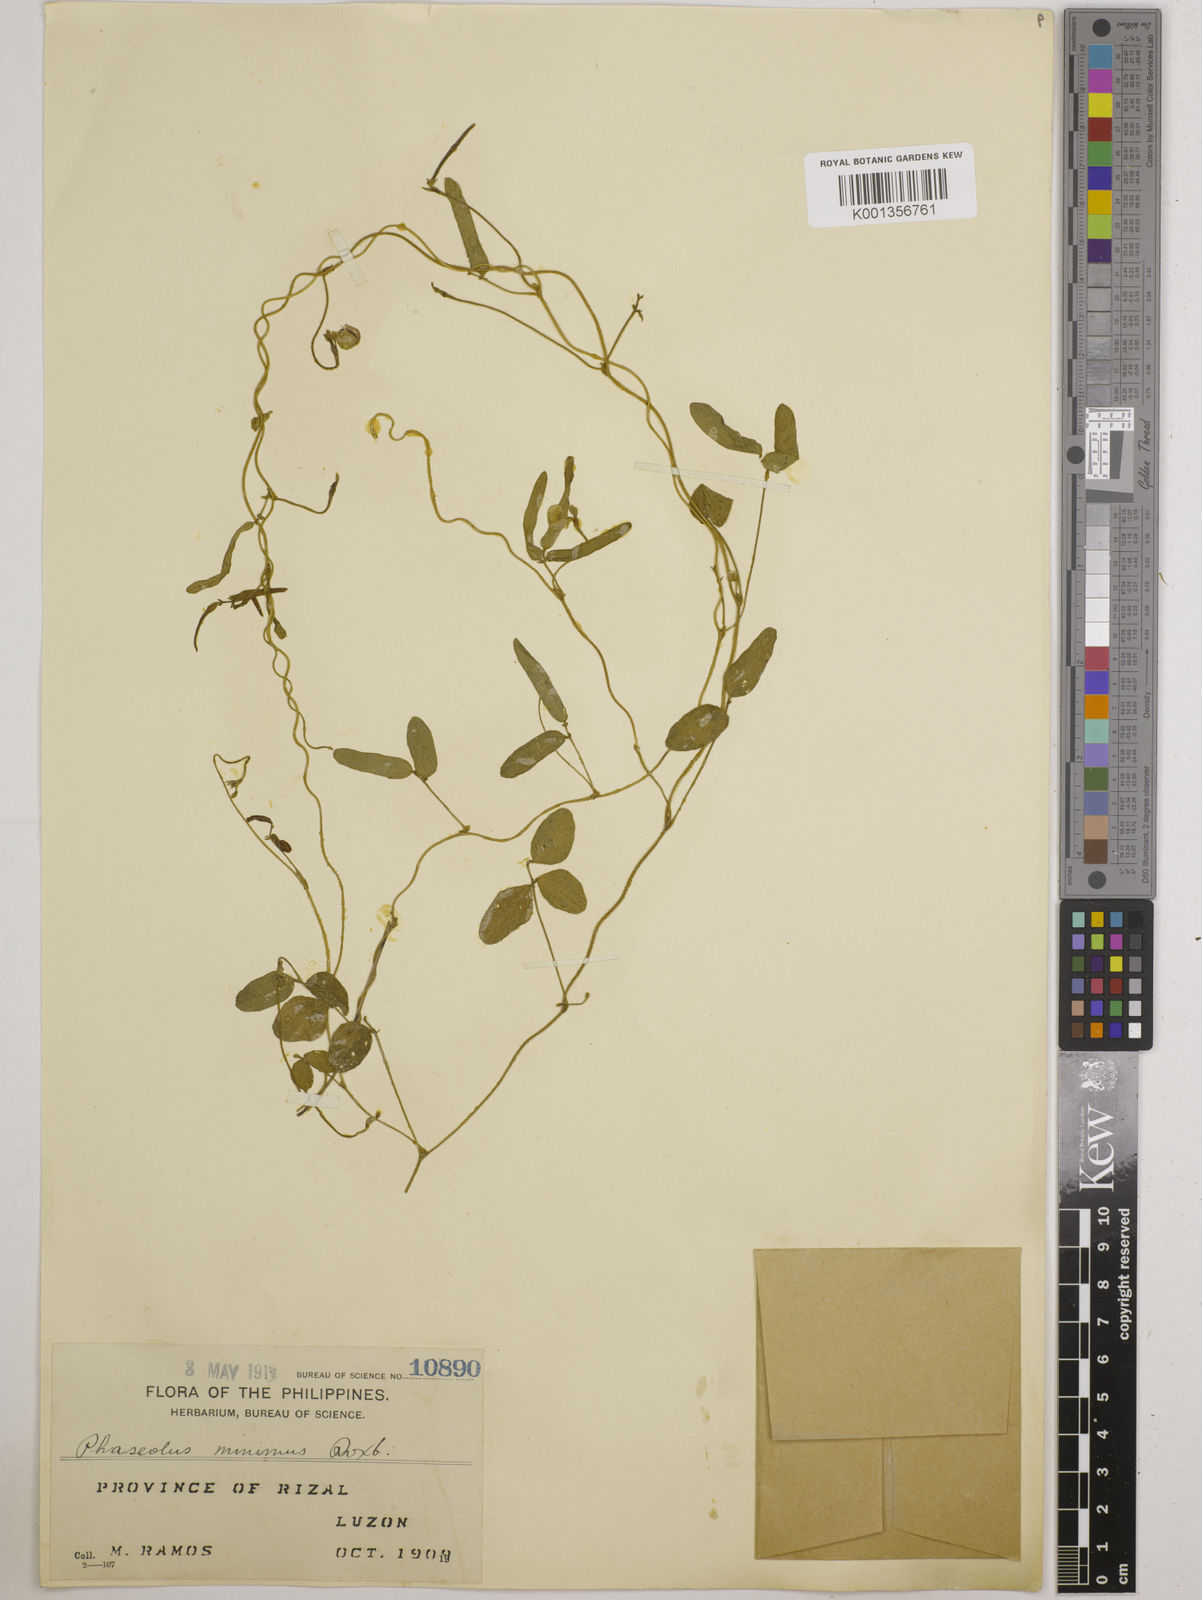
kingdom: Plantae
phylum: Tracheophyta
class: Magnoliopsida
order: Fabales
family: Fabaceae
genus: Vigna
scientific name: Vigna minima
